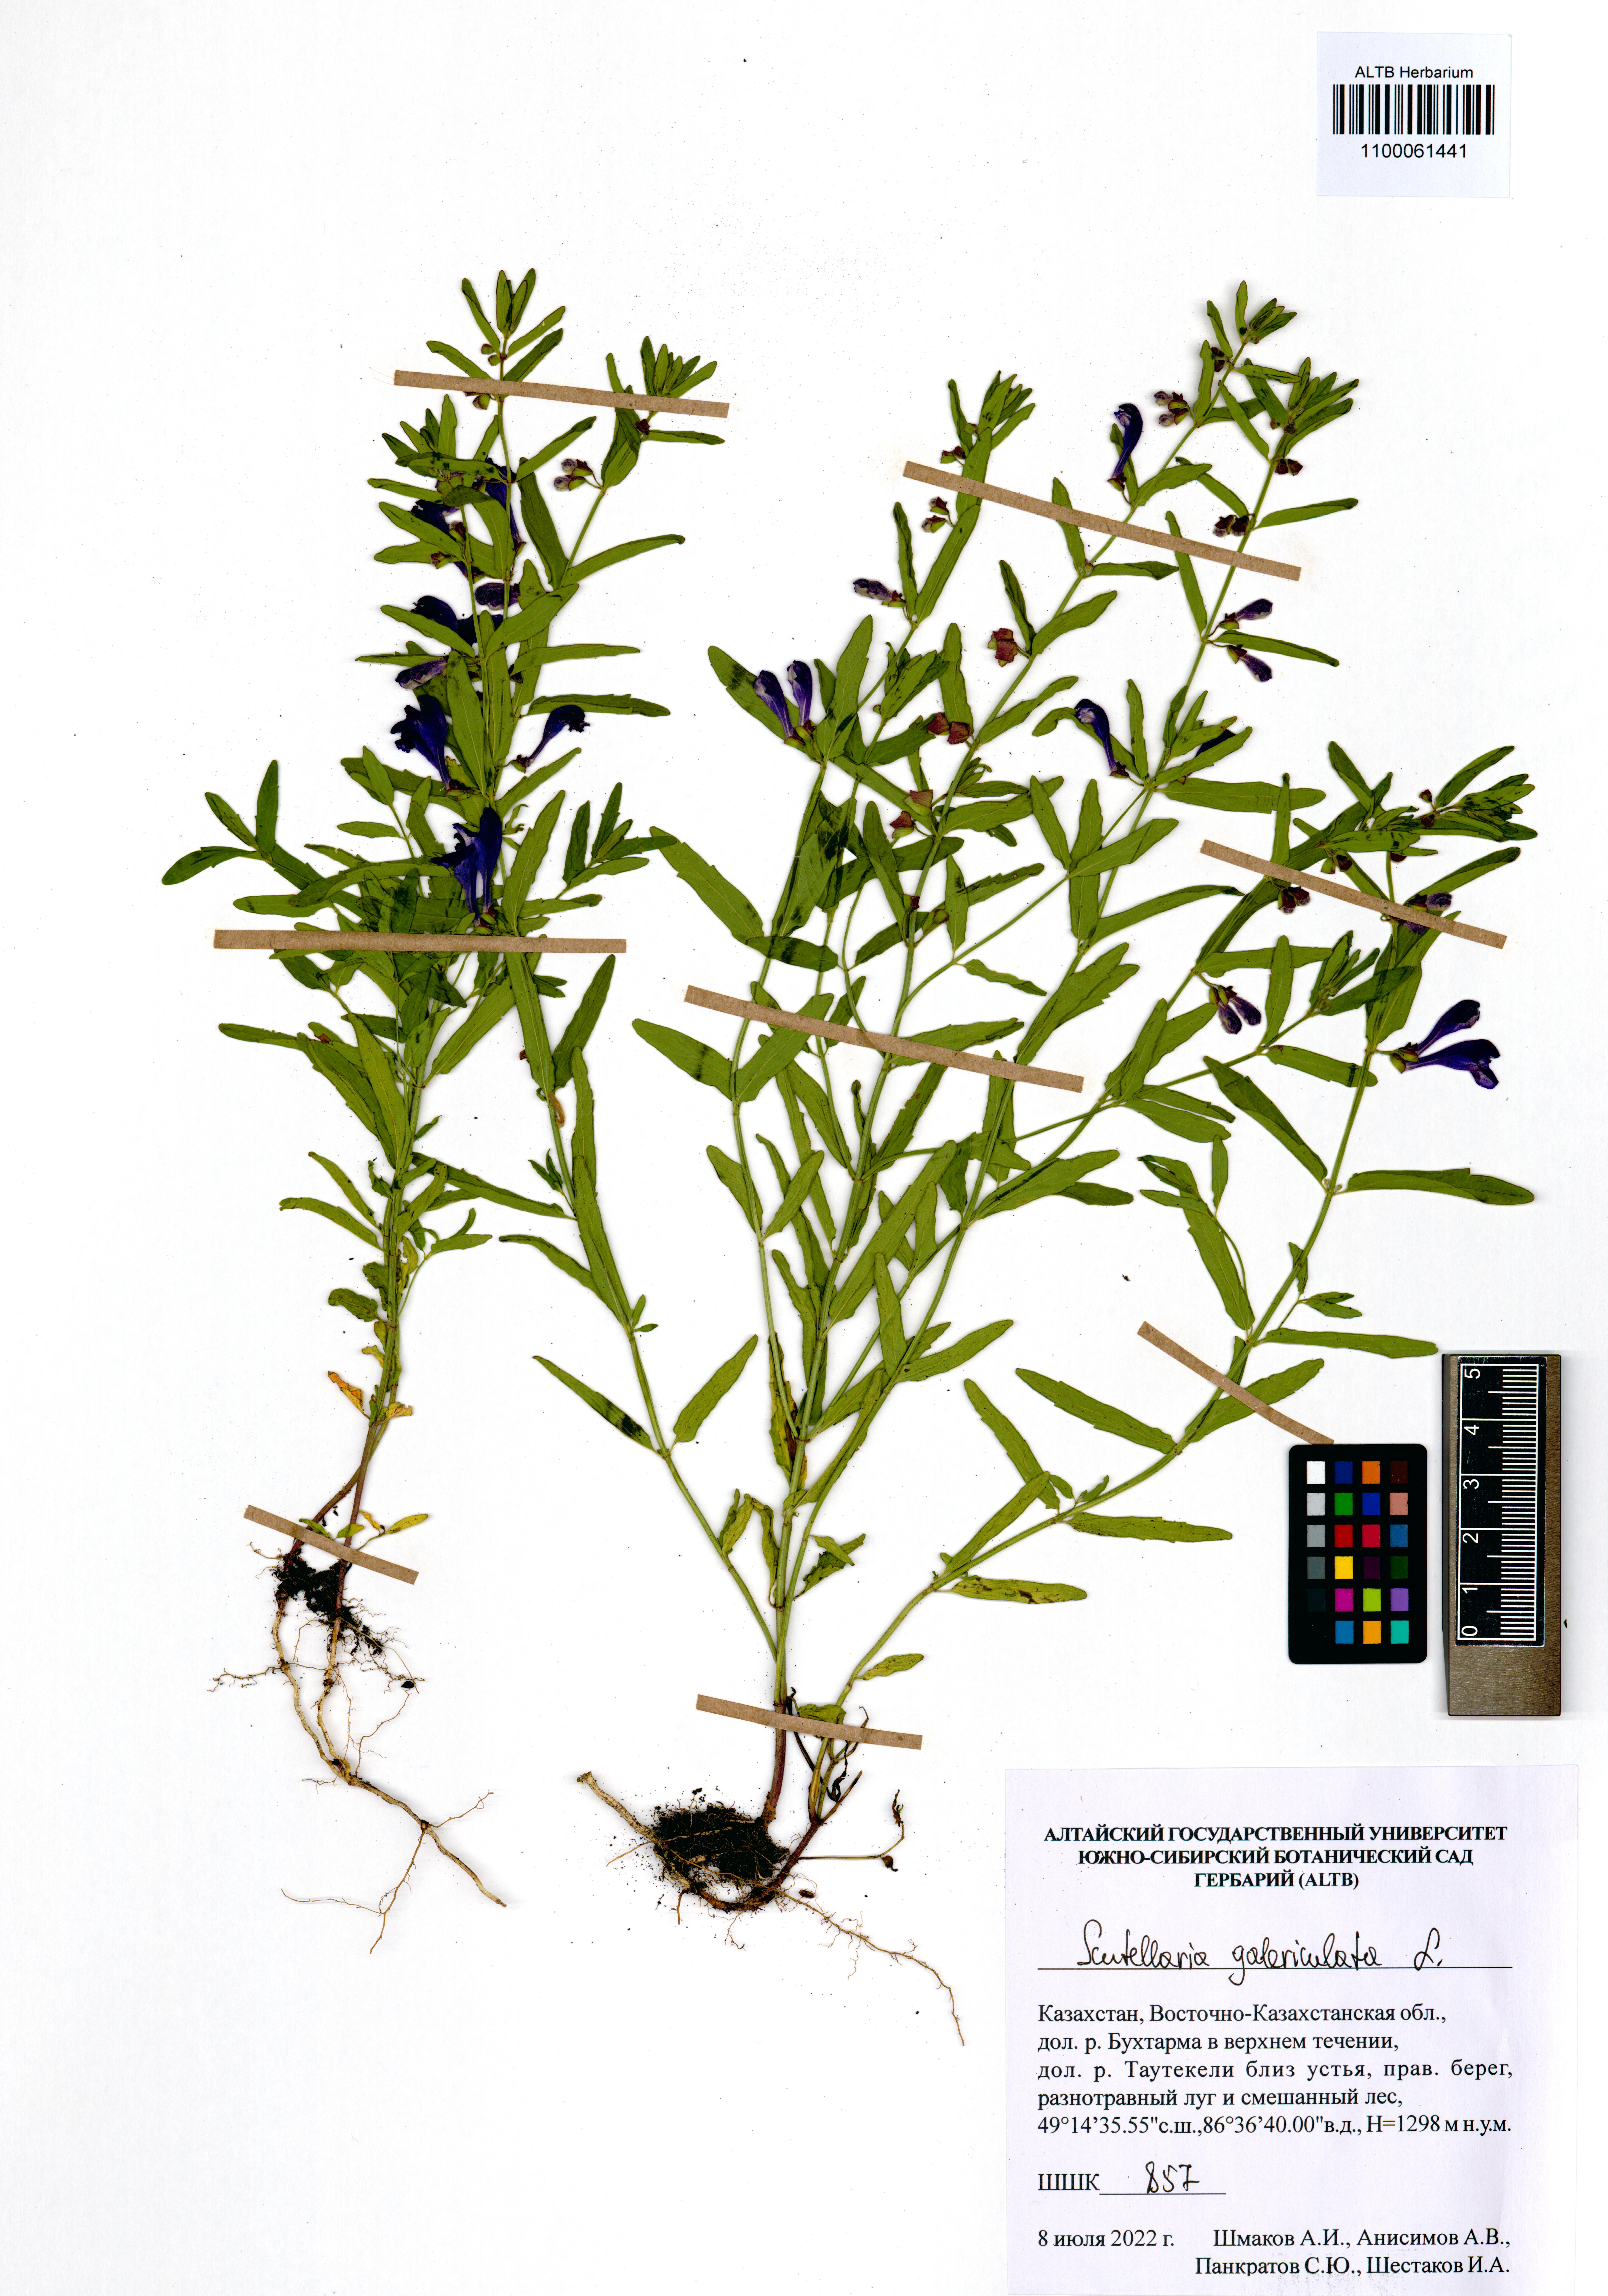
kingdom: Plantae
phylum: Tracheophyta
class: Magnoliopsida
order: Lamiales
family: Lamiaceae
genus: Scutellaria
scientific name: Scutellaria galericulata
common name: Skullcap
